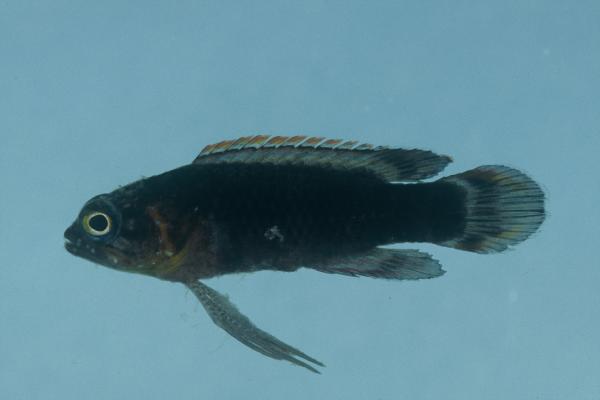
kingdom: Animalia
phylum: Chordata
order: Perciformes
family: Plesiopidae
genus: Plesiops
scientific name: Plesiops coeruleolineatus
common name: Crimsontip longfin
